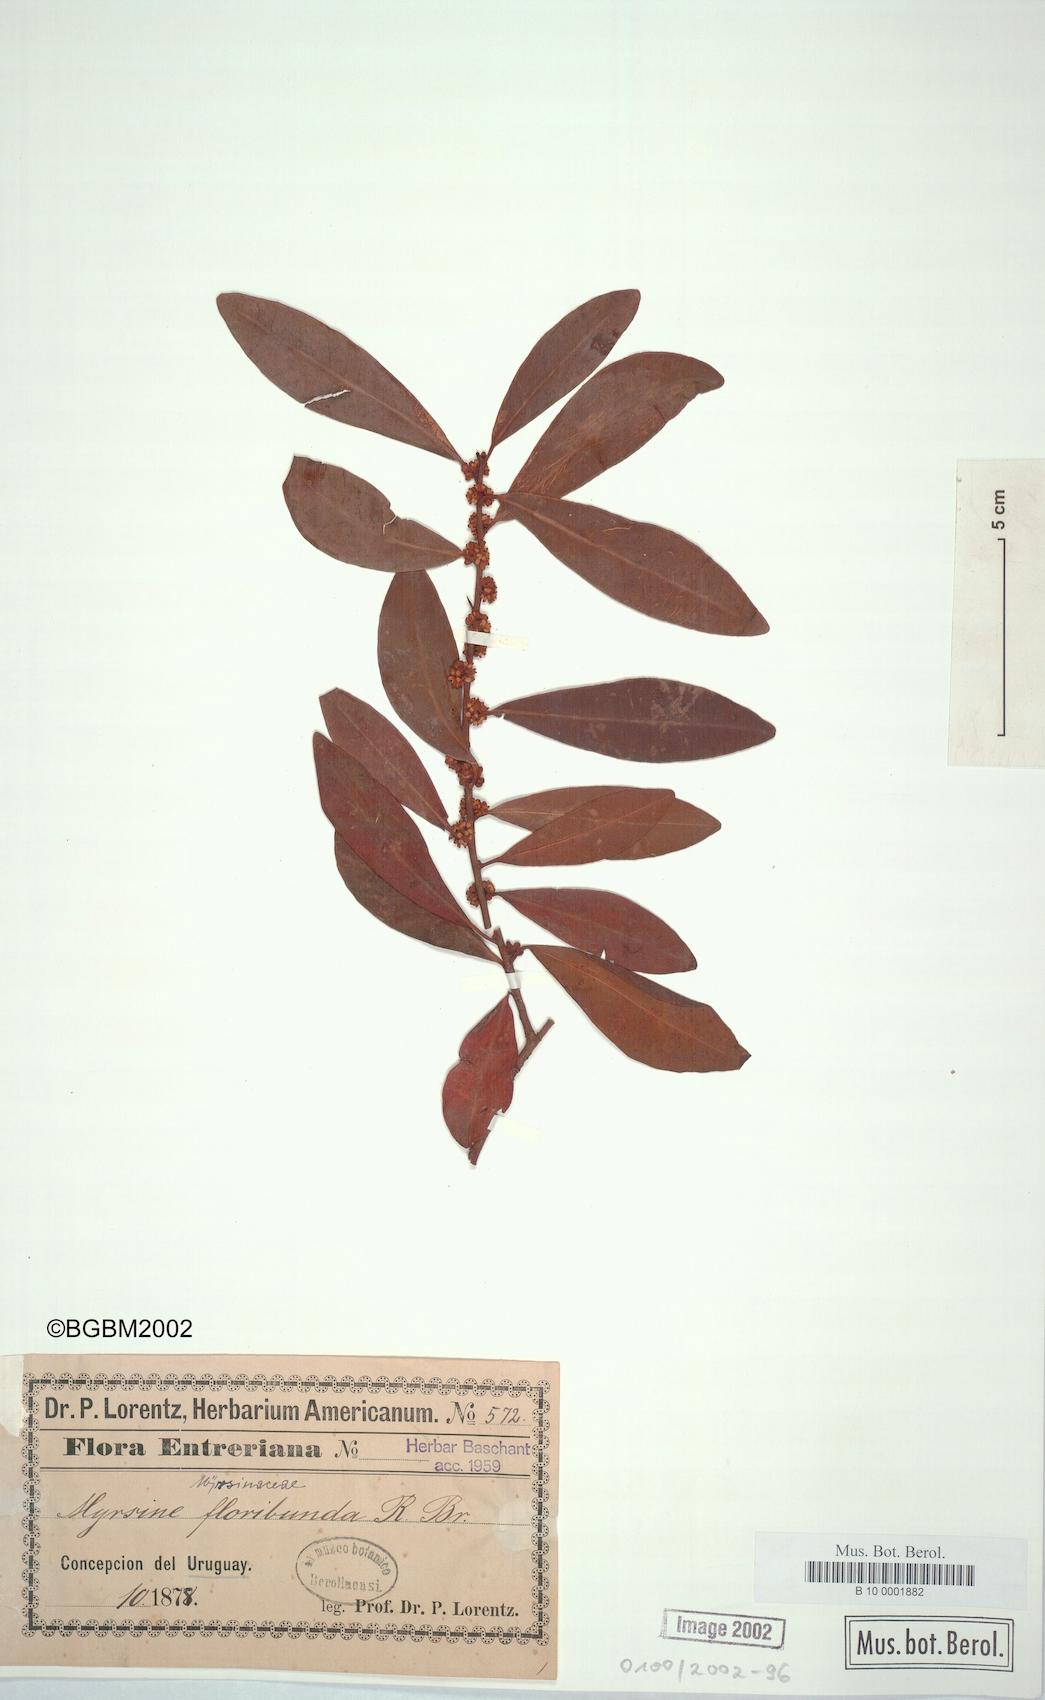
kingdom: Plantae
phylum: Tracheophyta
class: Magnoliopsida
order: Ericales
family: Primulaceae
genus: Myrsine
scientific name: Myrsine
